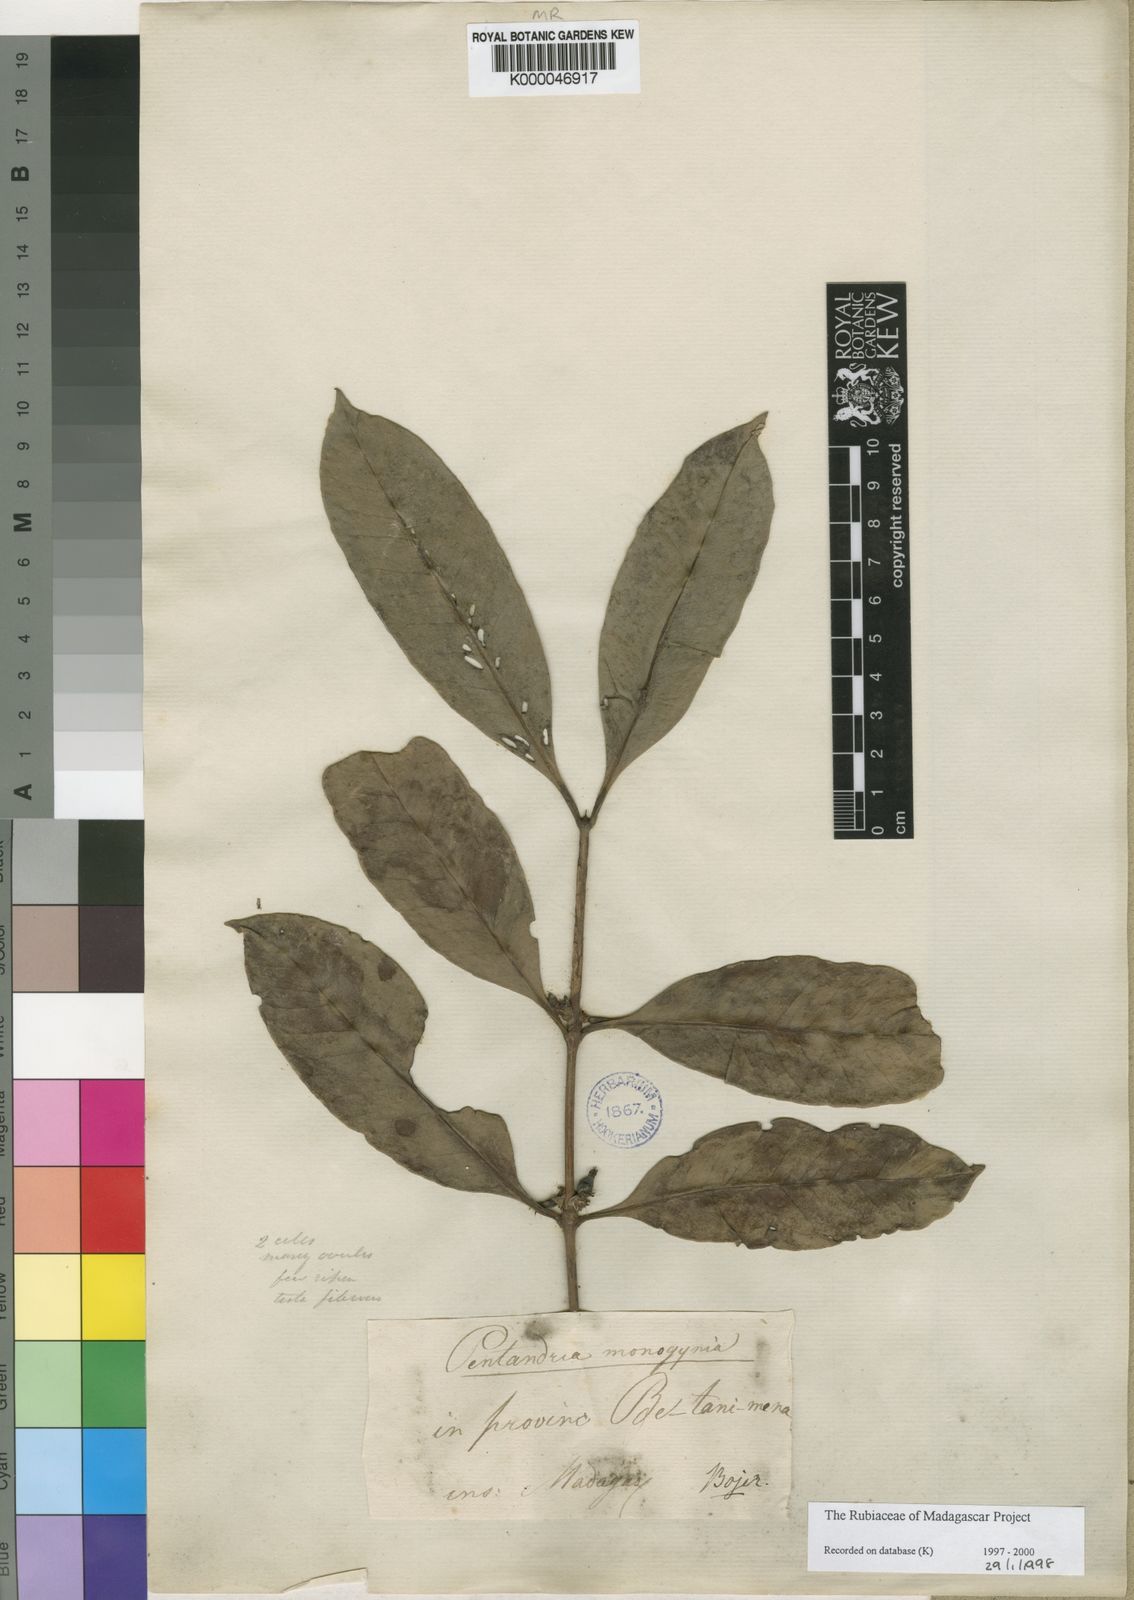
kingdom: Plantae
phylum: Tracheophyta
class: Magnoliopsida
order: Gentianales
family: Rubiaceae
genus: Chapelieria
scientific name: Chapelieria madagascariensis
